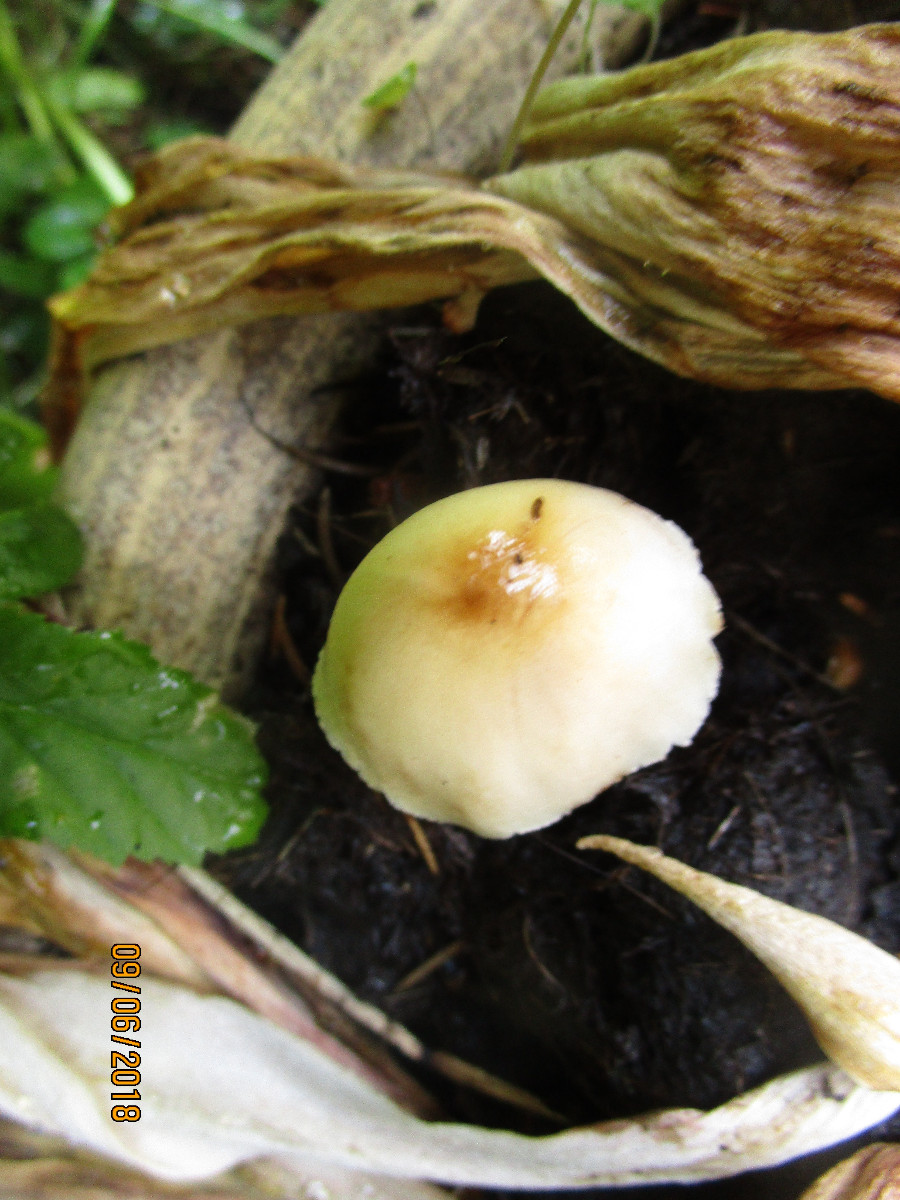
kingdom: Fungi
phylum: Basidiomycota
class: Agaricomycetes
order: Agaricales
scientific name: Agaricales
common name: champignonordenen
